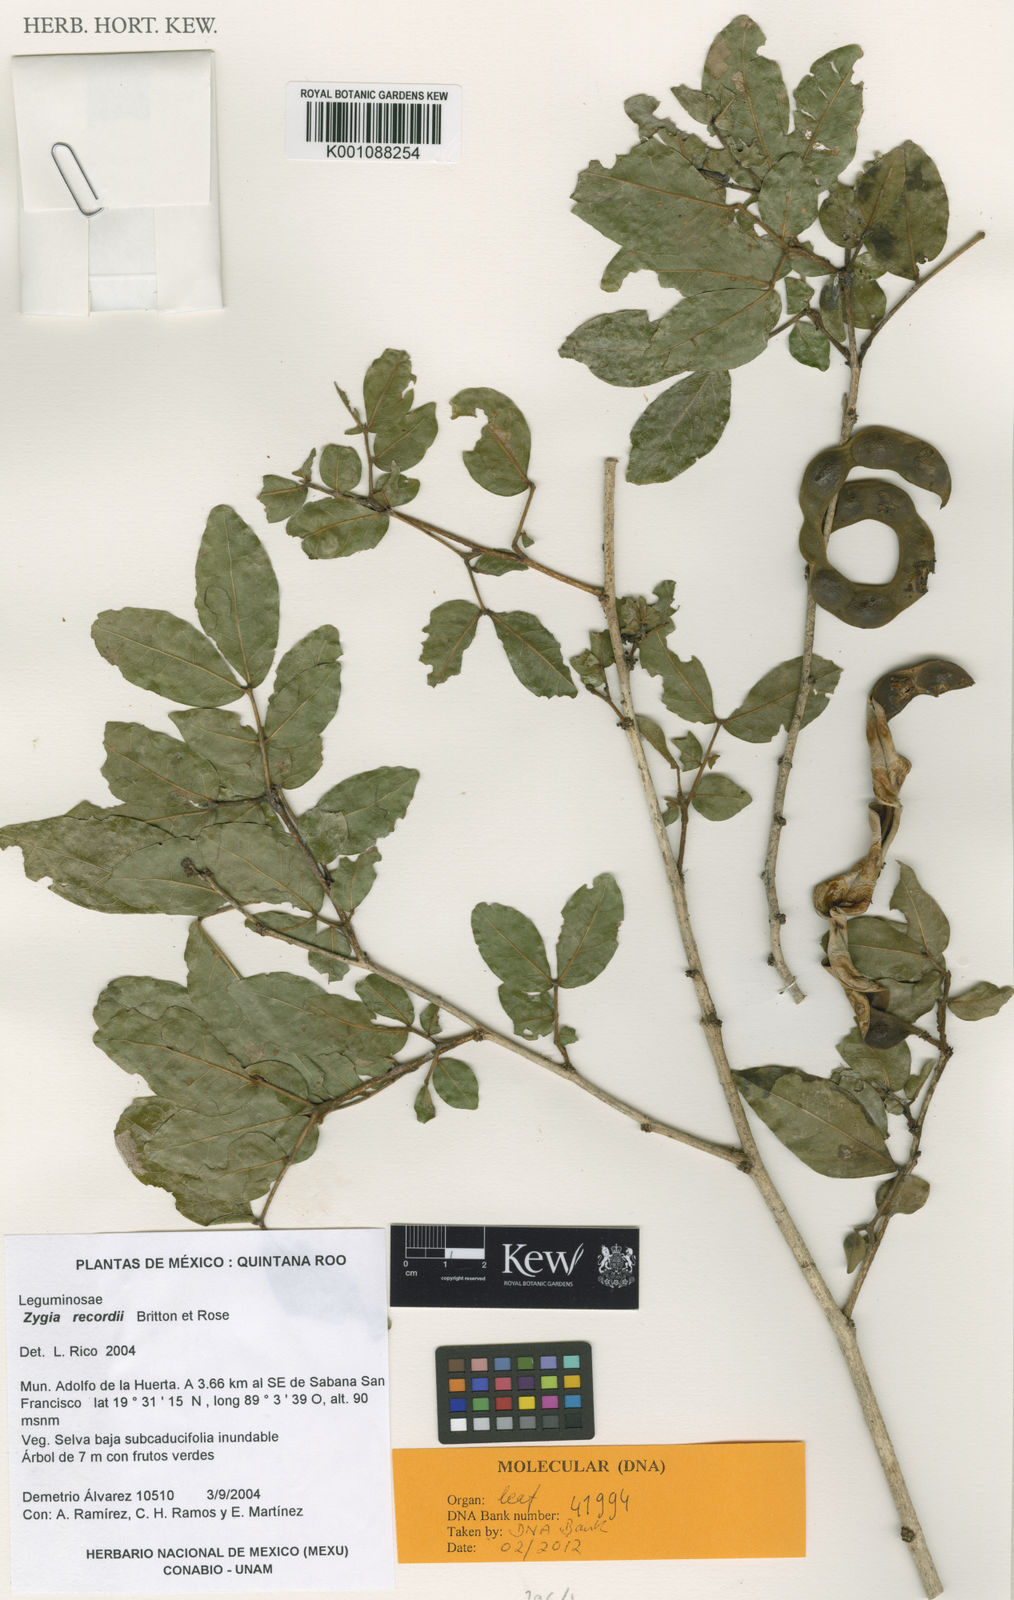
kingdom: Plantae
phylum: Tracheophyta
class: Magnoliopsida
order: Fabales
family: Fabaceae
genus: Zygia
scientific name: Zygia conzattii
